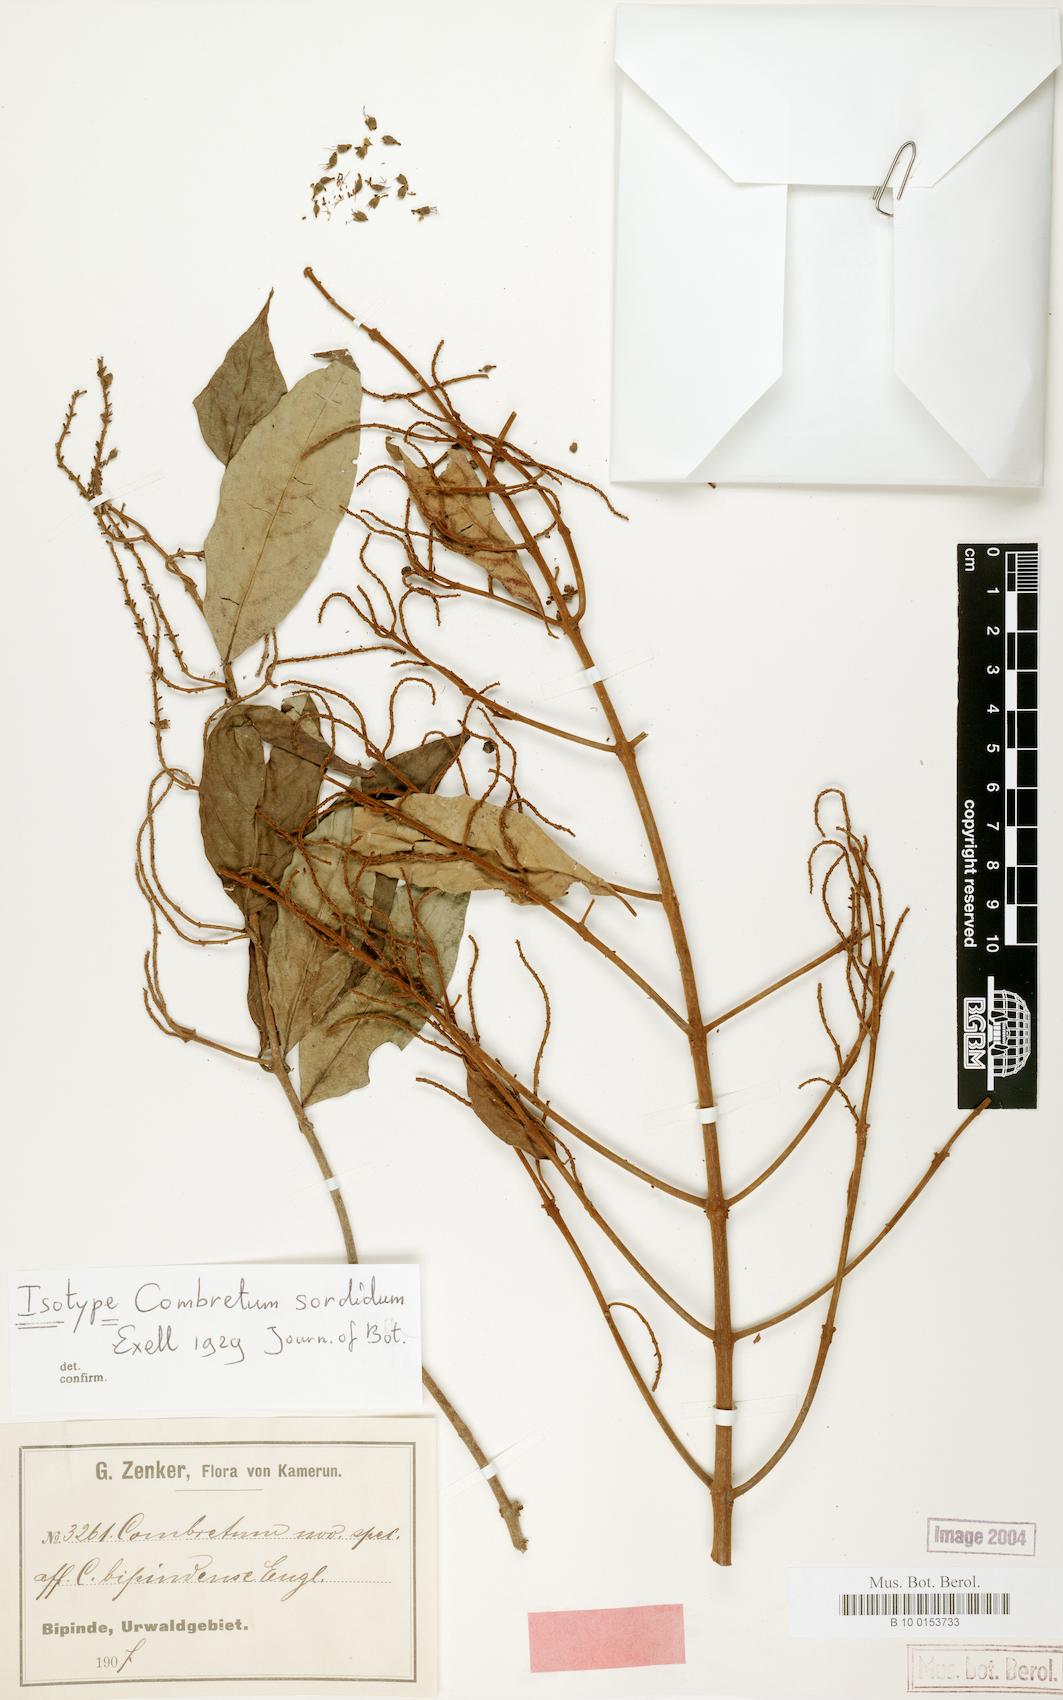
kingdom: Plantae
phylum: Tracheophyta
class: Magnoliopsida
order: Myrtales
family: Combretaceae
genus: Combretum
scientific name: Combretum sordidum
